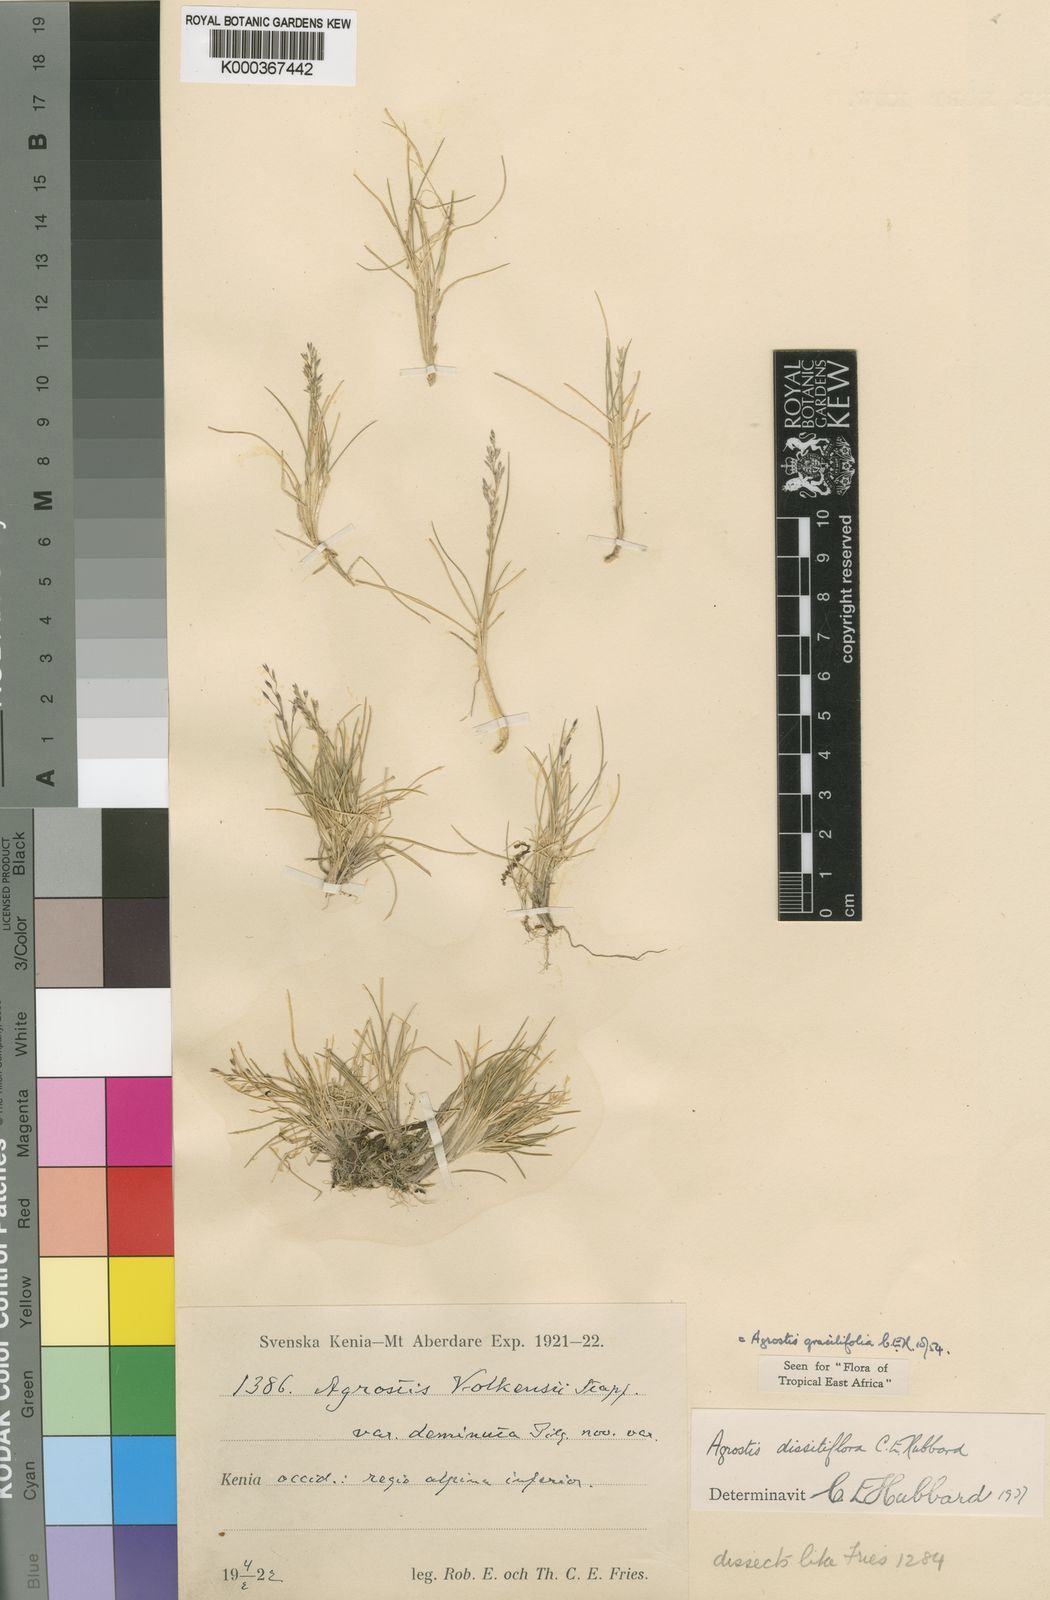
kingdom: Plantae
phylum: Tracheophyta
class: Liliopsida
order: Poales
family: Poaceae
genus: Agrostis
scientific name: Agrostis gracilifolia
